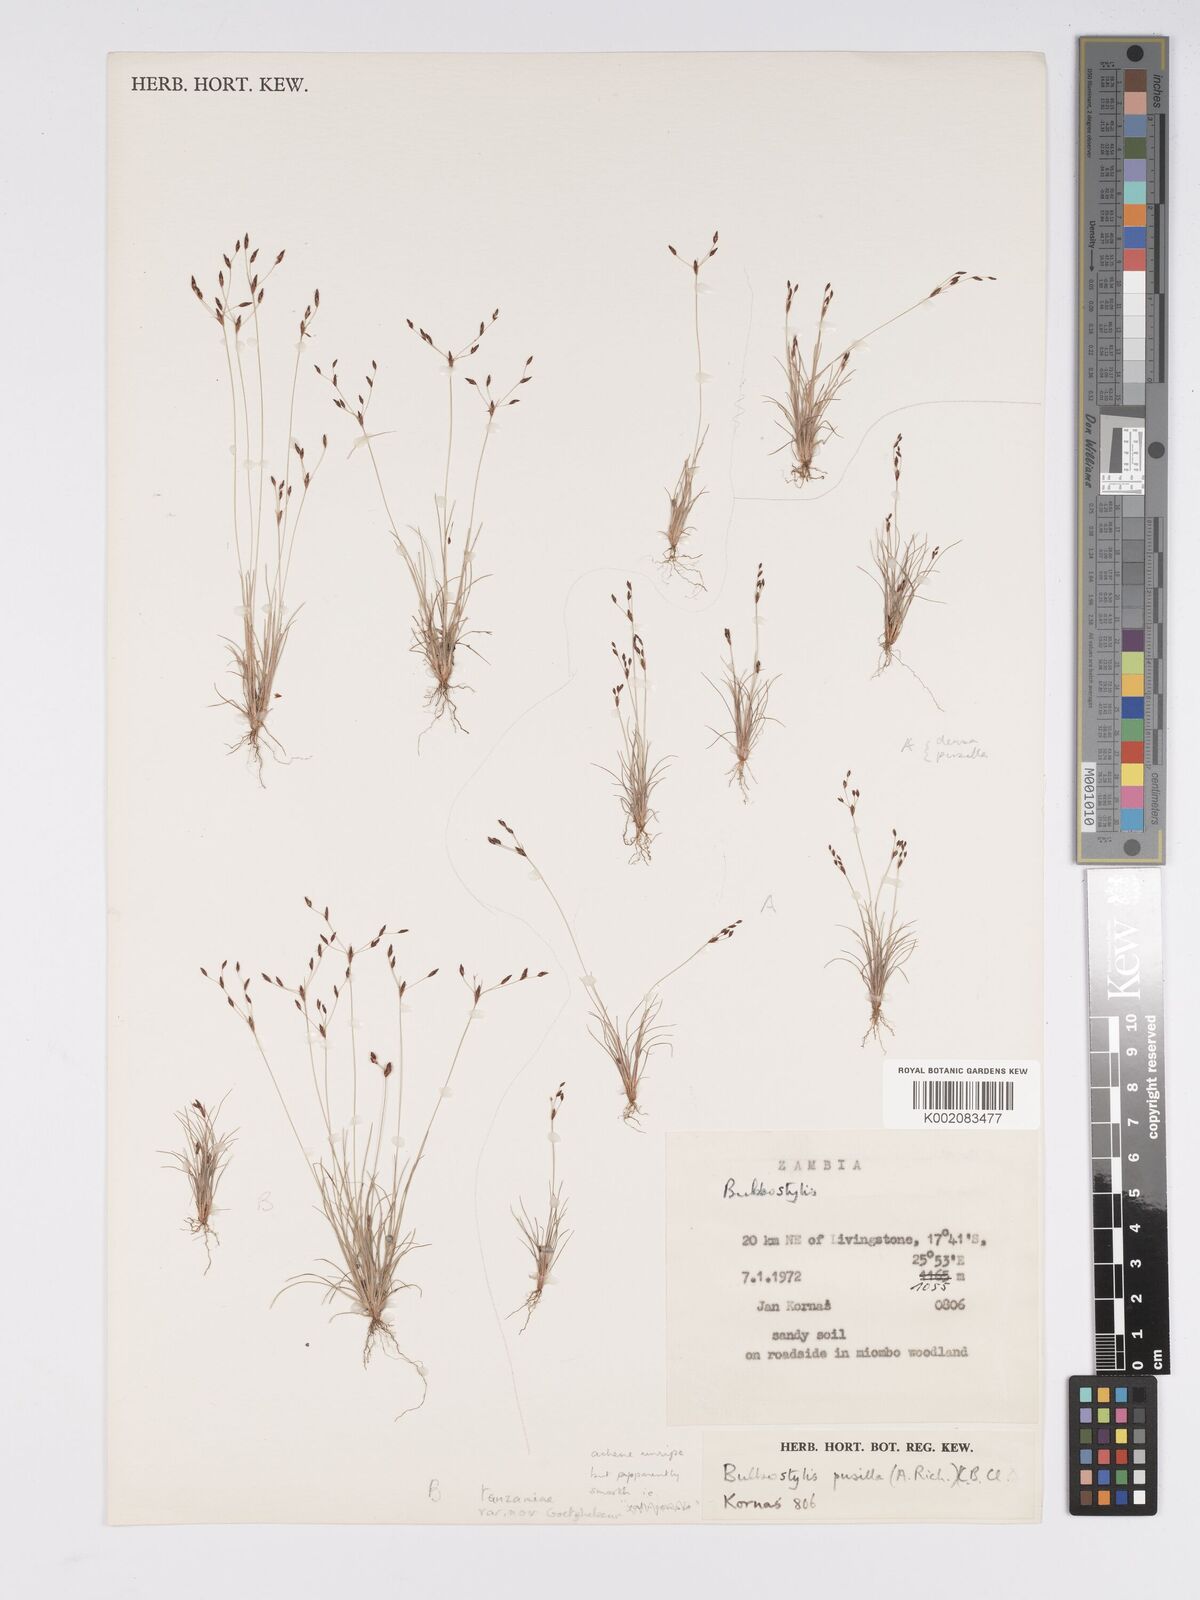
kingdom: Plantae
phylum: Tracheophyta
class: Liliopsida
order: Poales
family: Cyperaceae
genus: Bulbostylis
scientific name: Bulbostylis densa
